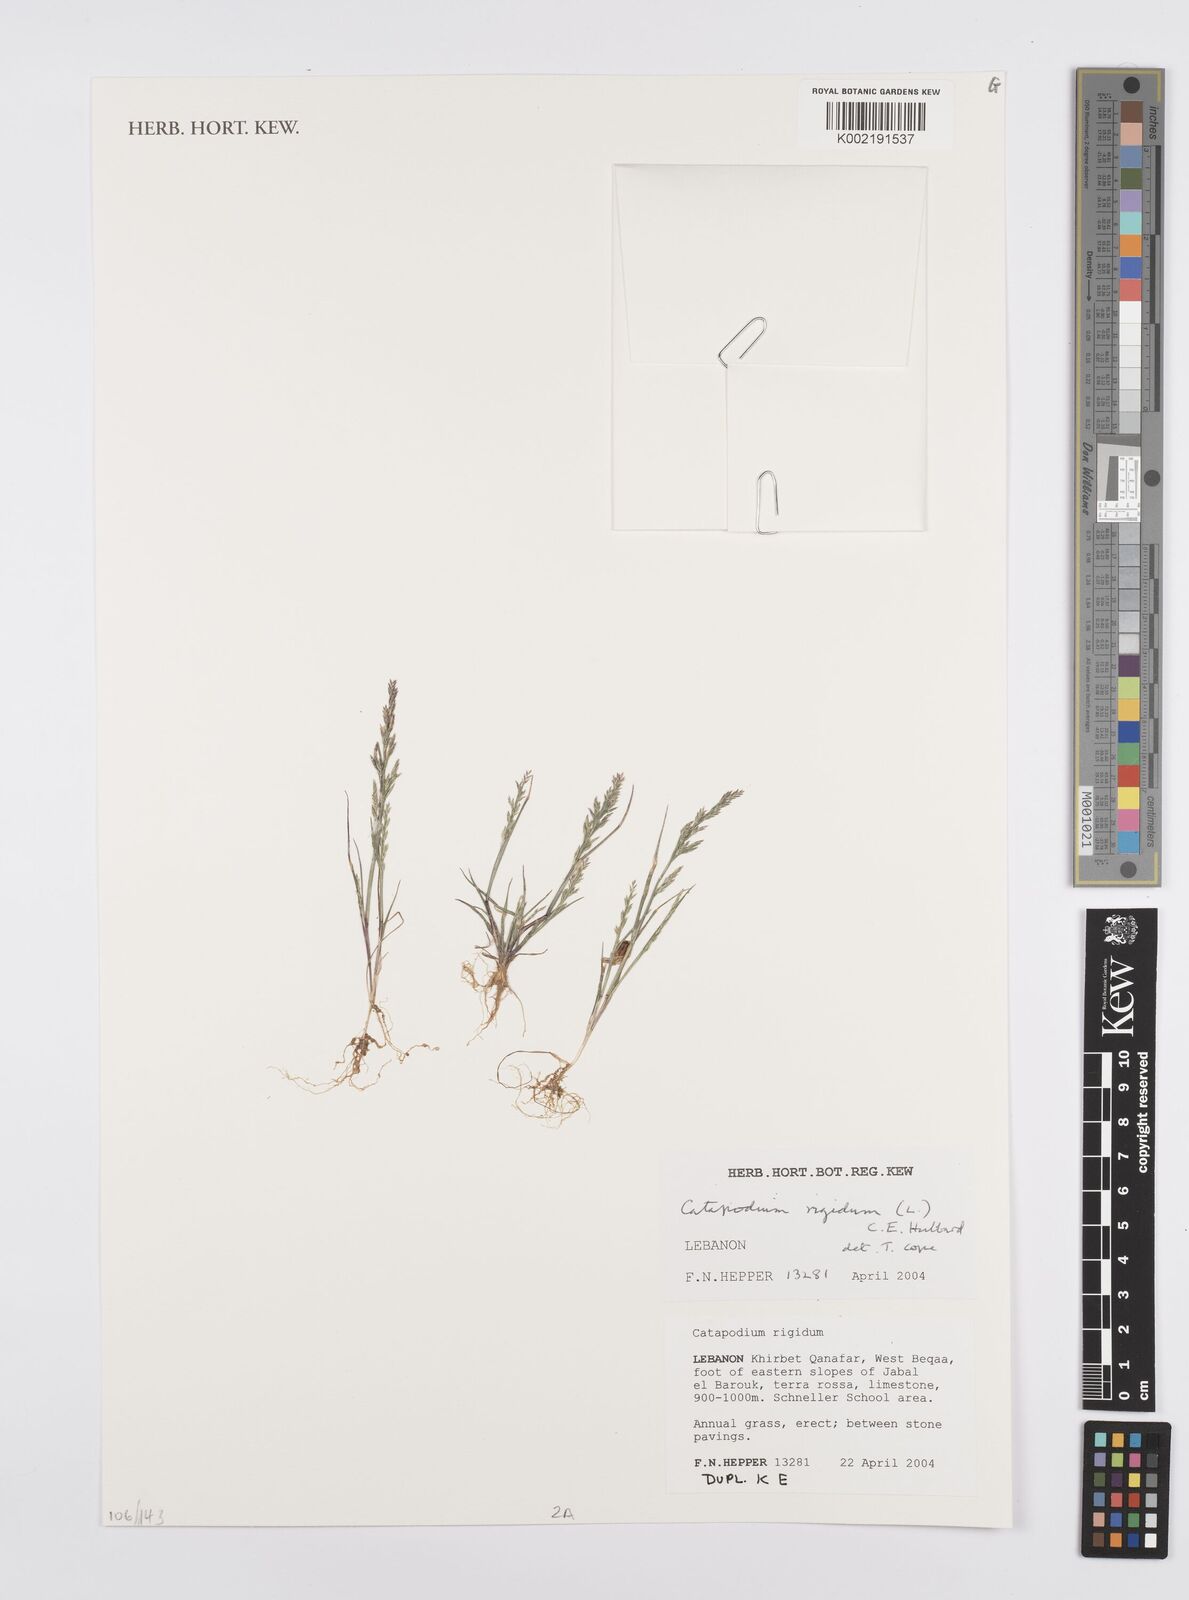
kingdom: Plantae
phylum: Tracheophyta
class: Liliopsida
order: Poales
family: Poaceae
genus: Catapodium
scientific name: Catapodium marinum
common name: Sea fern-grass
